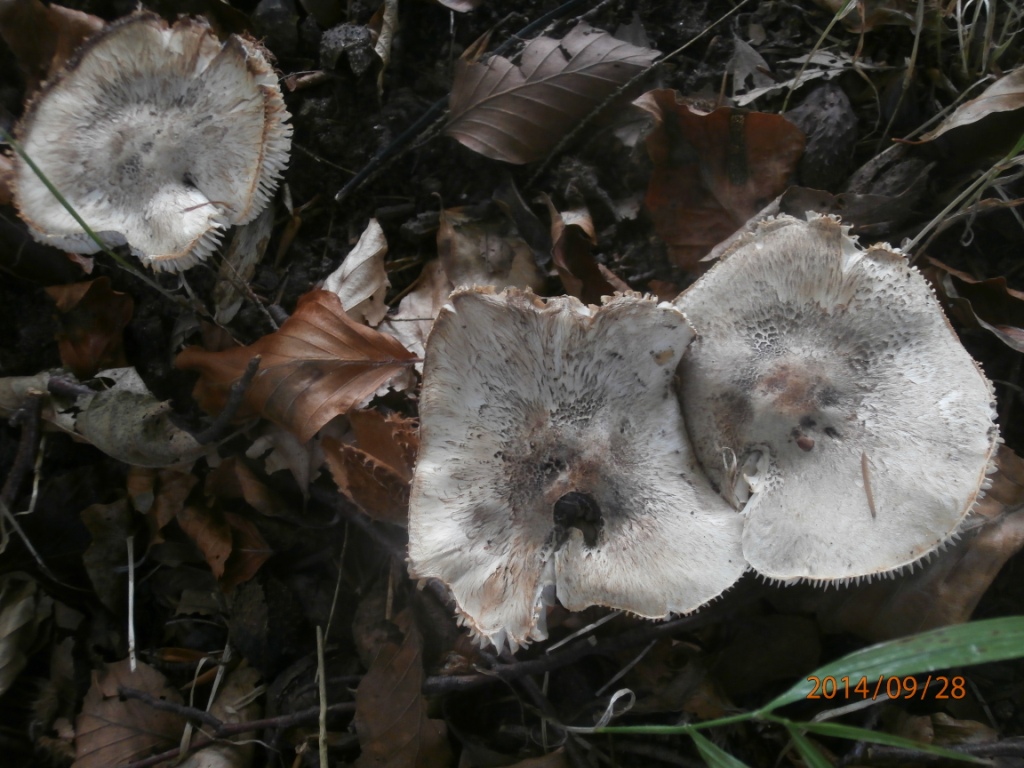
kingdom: Fungi
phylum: Basidiomycota
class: Agaricomycetes
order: Agaricales
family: Tricholomataceae
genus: Tricholoma
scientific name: Tricholoma basirubens
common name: rødfodet ridderhat
